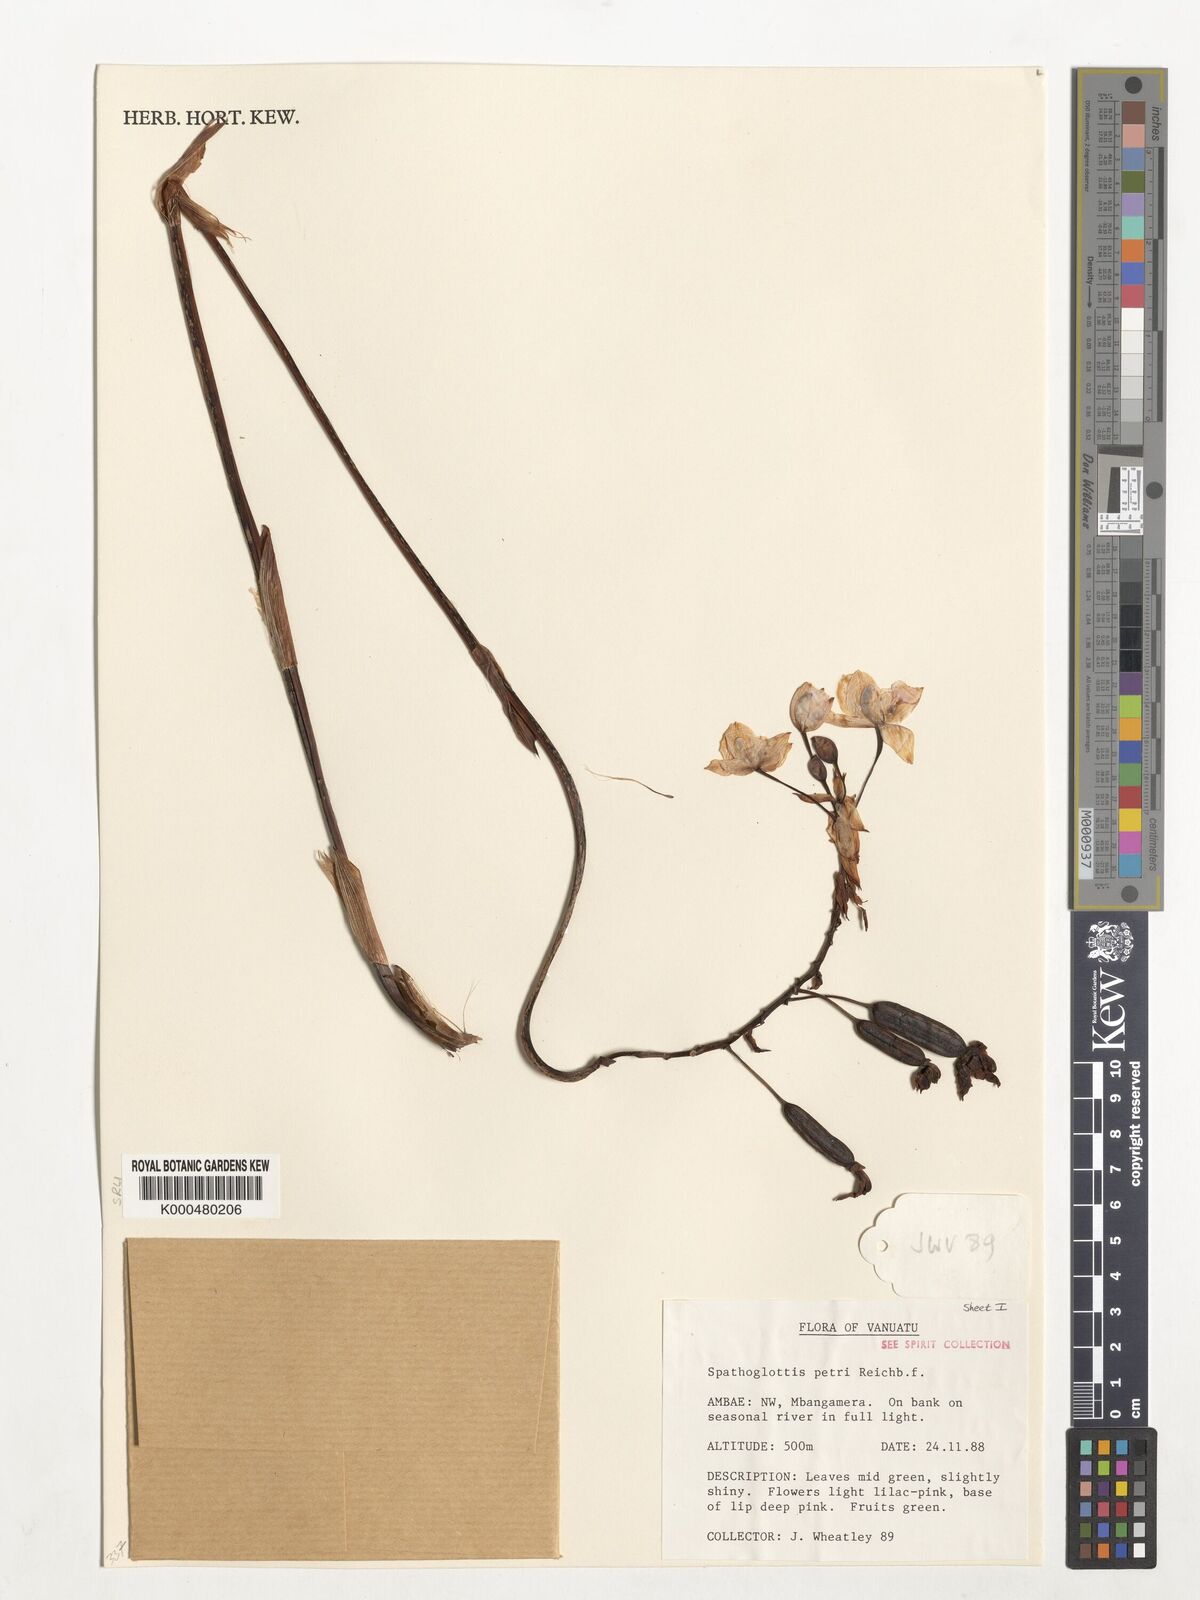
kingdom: Plantae
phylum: Tracheophyta
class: Liliopsida
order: Asparagales
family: Orchidaceae
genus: Spathoglottis
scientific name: Spathoglottis petri
